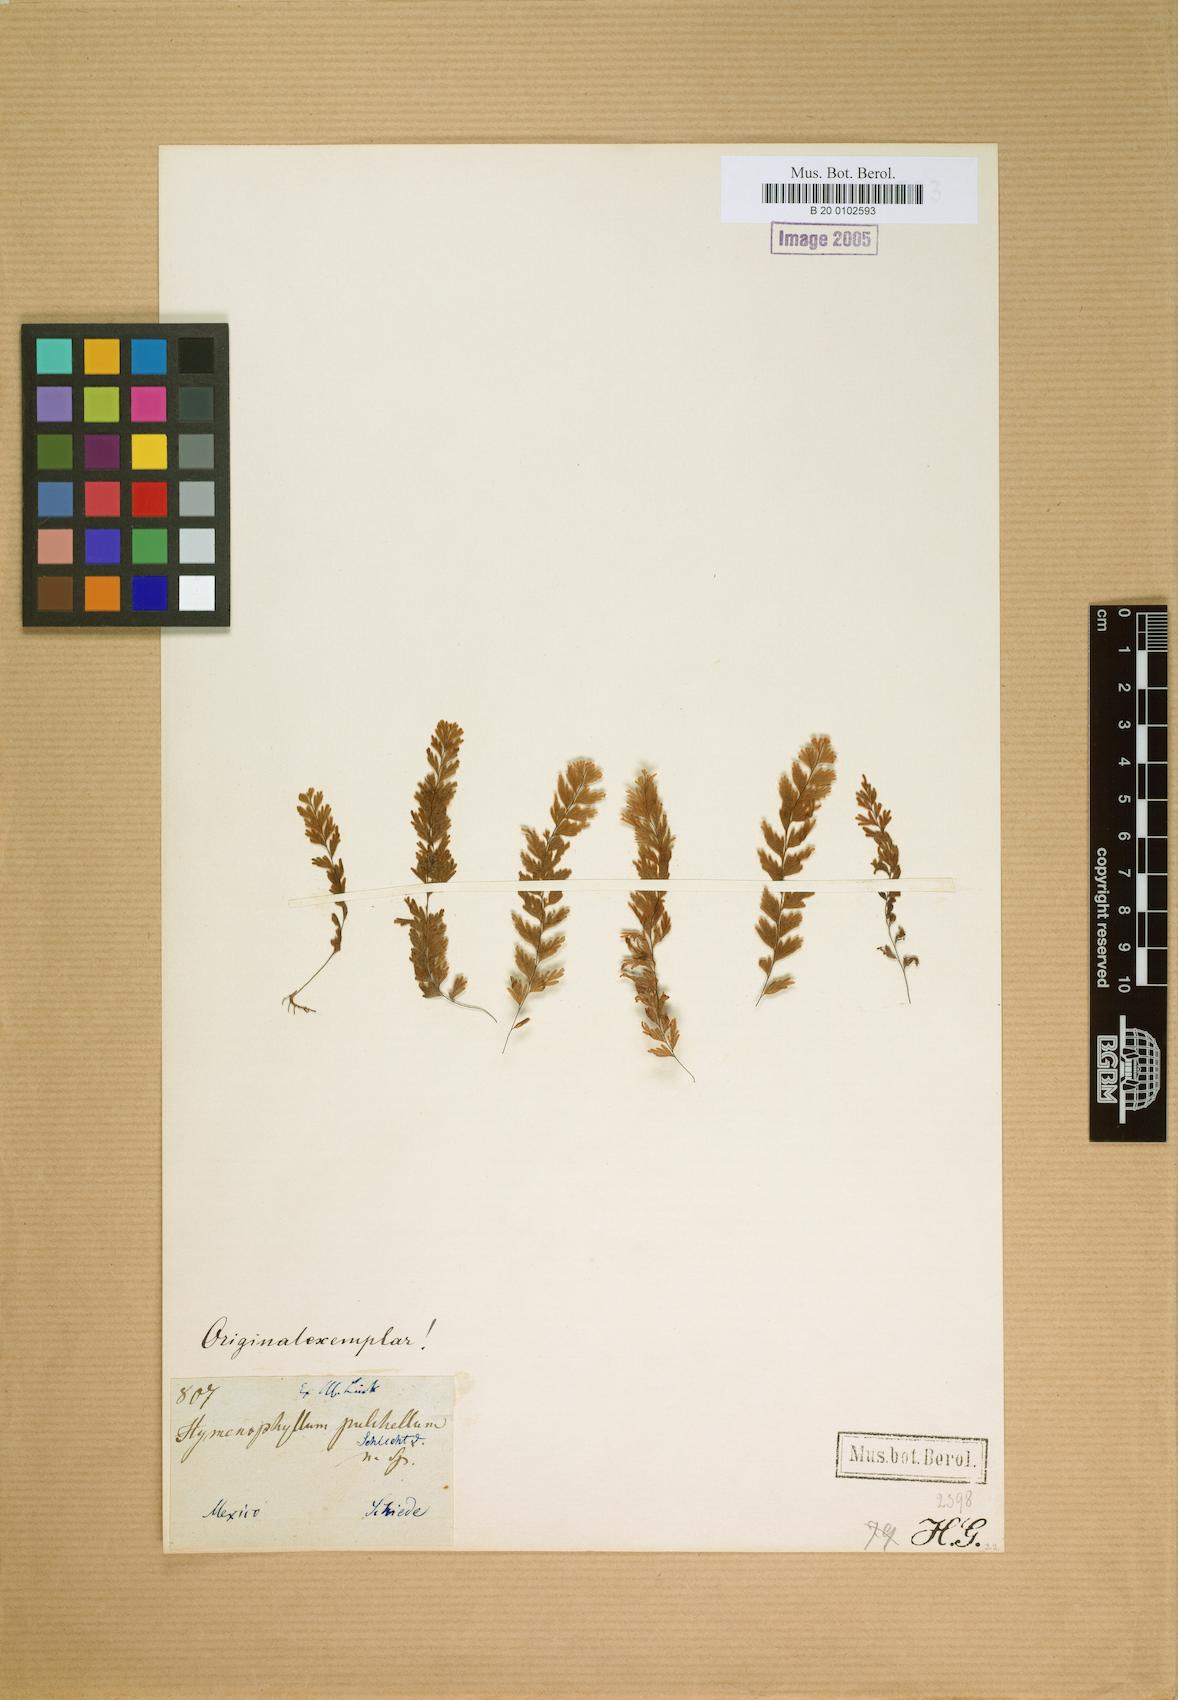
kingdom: Plantae
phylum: Tracheophyta
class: Polypodiopsida
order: Hymenophyllales
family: Hymenophyllaceae
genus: Hymenophyllum
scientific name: Hymenophyllum pulchellum
